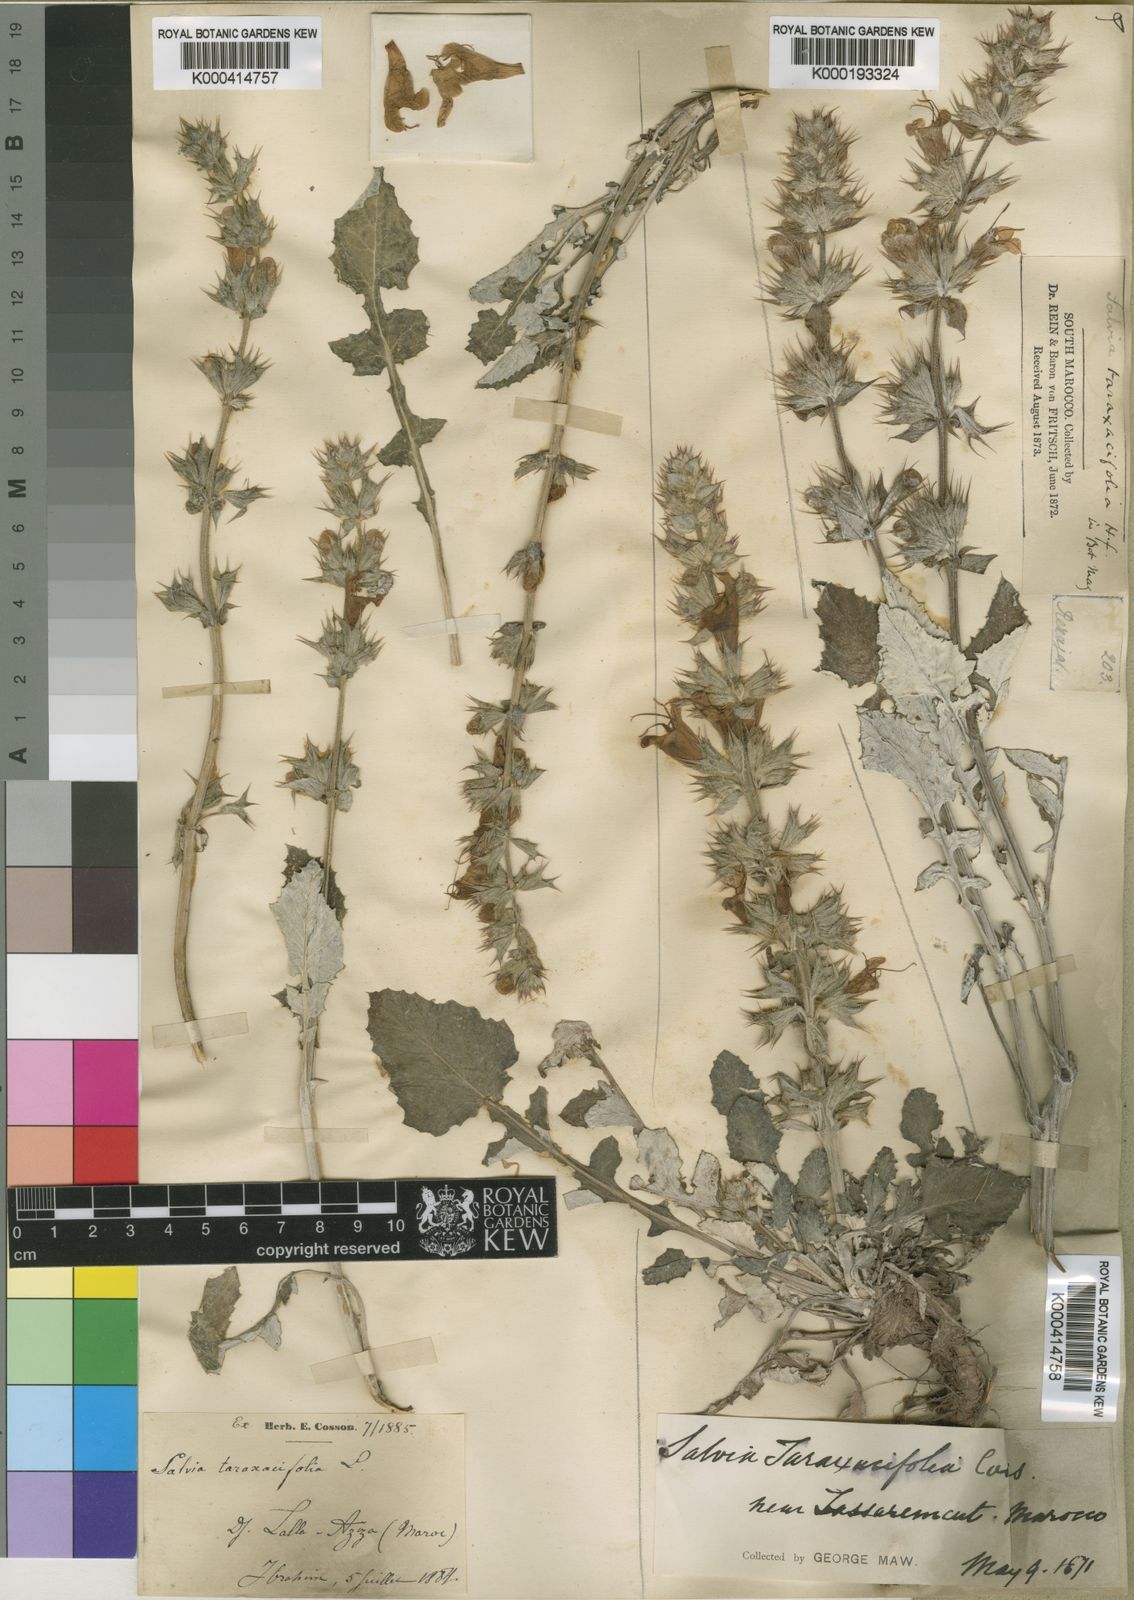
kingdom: Plantae
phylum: Tracheophyta
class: Magnoliopsida
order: Lamiales
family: Lamiaceae
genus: Salvia
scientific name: Salvia
